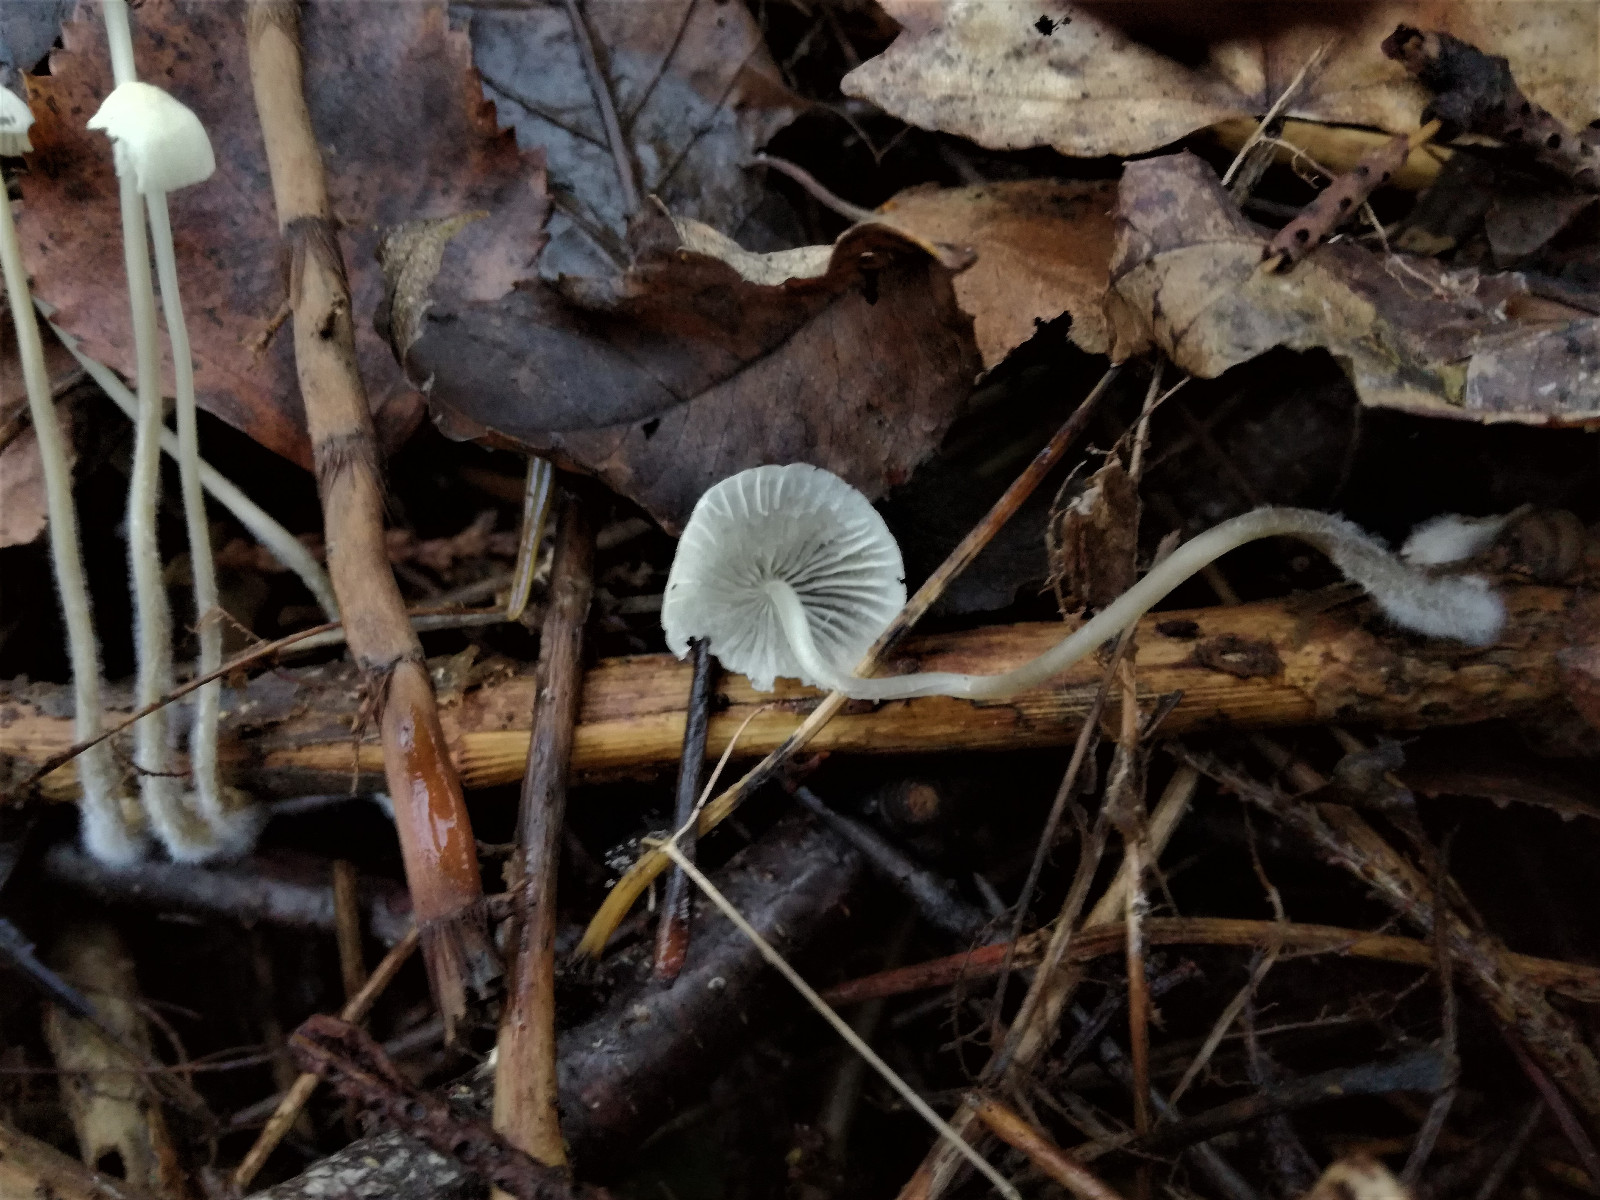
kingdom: Fungi
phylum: Basidiomycota
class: Agaricomycetes
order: Agaricales
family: Mycenaceae
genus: Mycena
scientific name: Mycena vitilis
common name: blankstokket huesvamp
